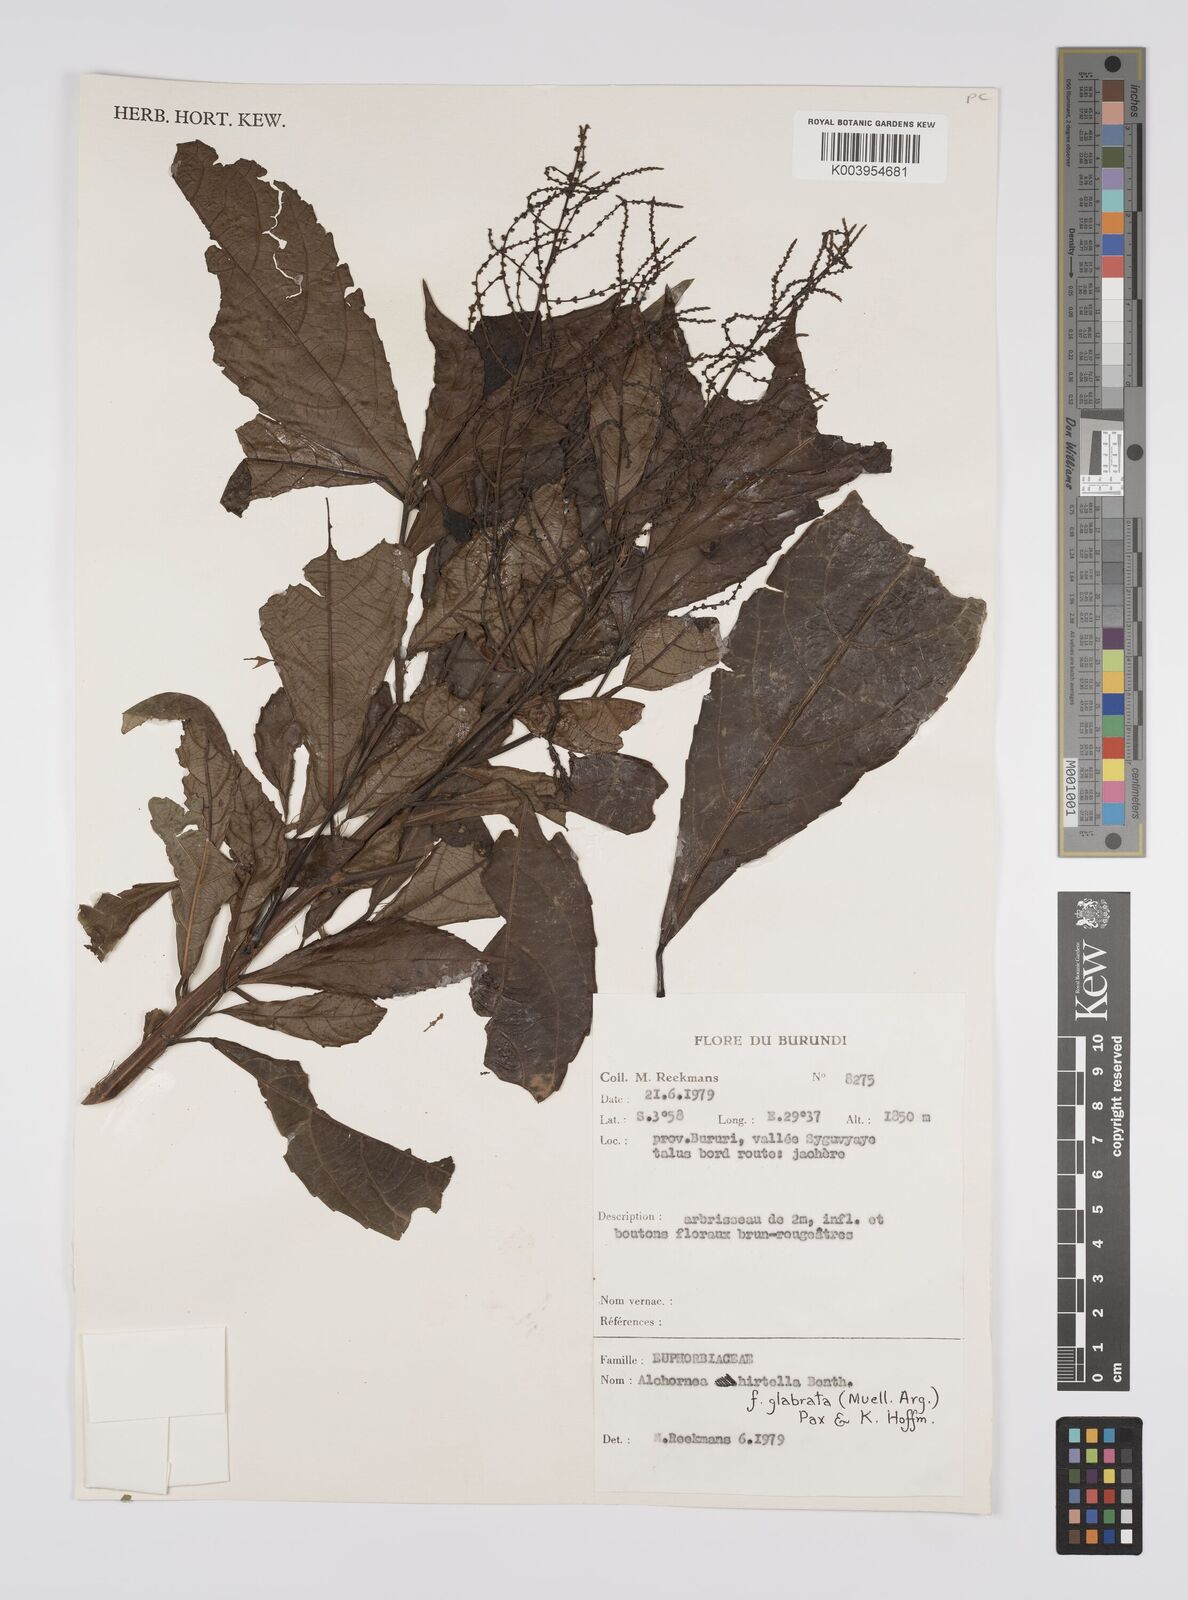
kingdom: Plantae
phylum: Tracheophyta
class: Magnoliopsida
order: Malpighiales
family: Euphorbiaceae
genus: Alchornea
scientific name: Alchornea hirtella
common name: Forest bead-string
